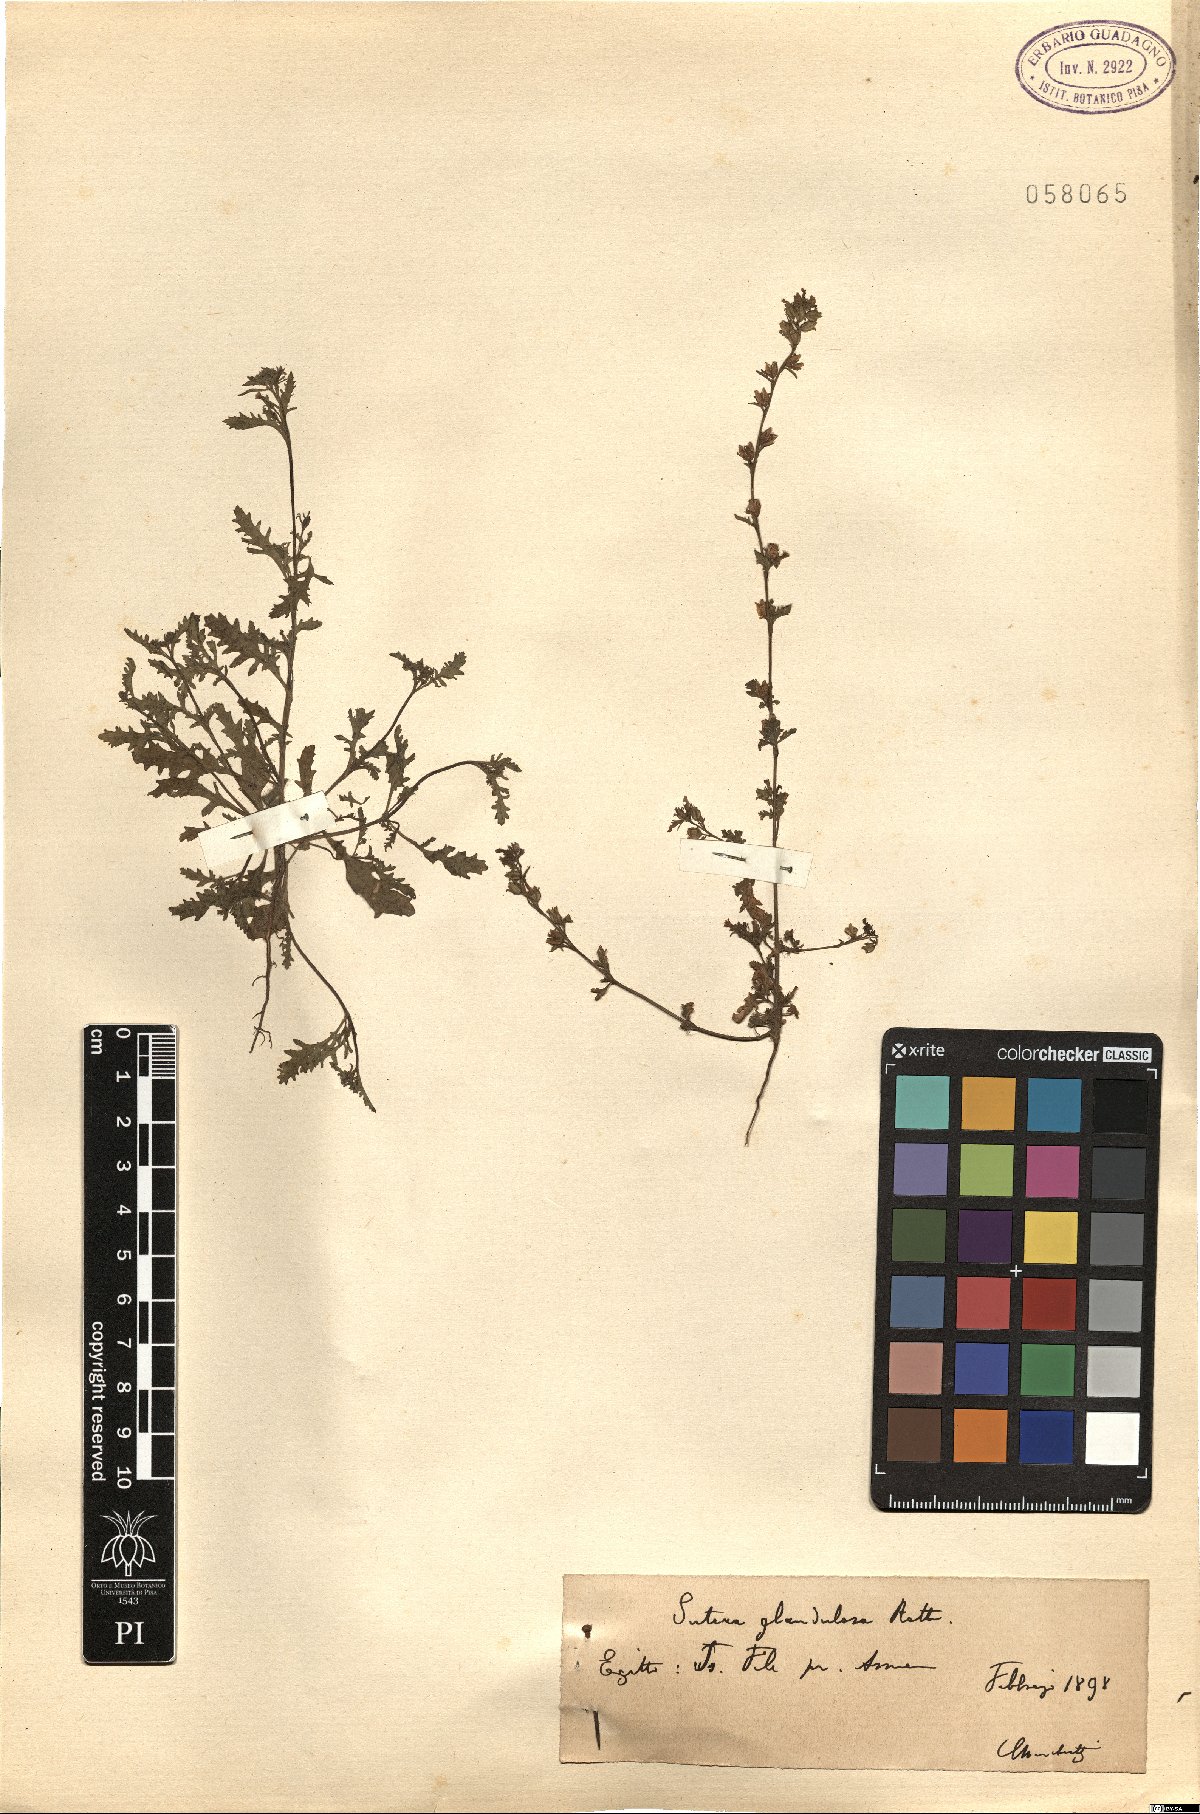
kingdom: Plantae
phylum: Tracheophyta
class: Magnoliopsida
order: Lamiales
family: Scrophulariaceae
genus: Jamesbrittenia
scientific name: Jamesbrittenia dissecta
